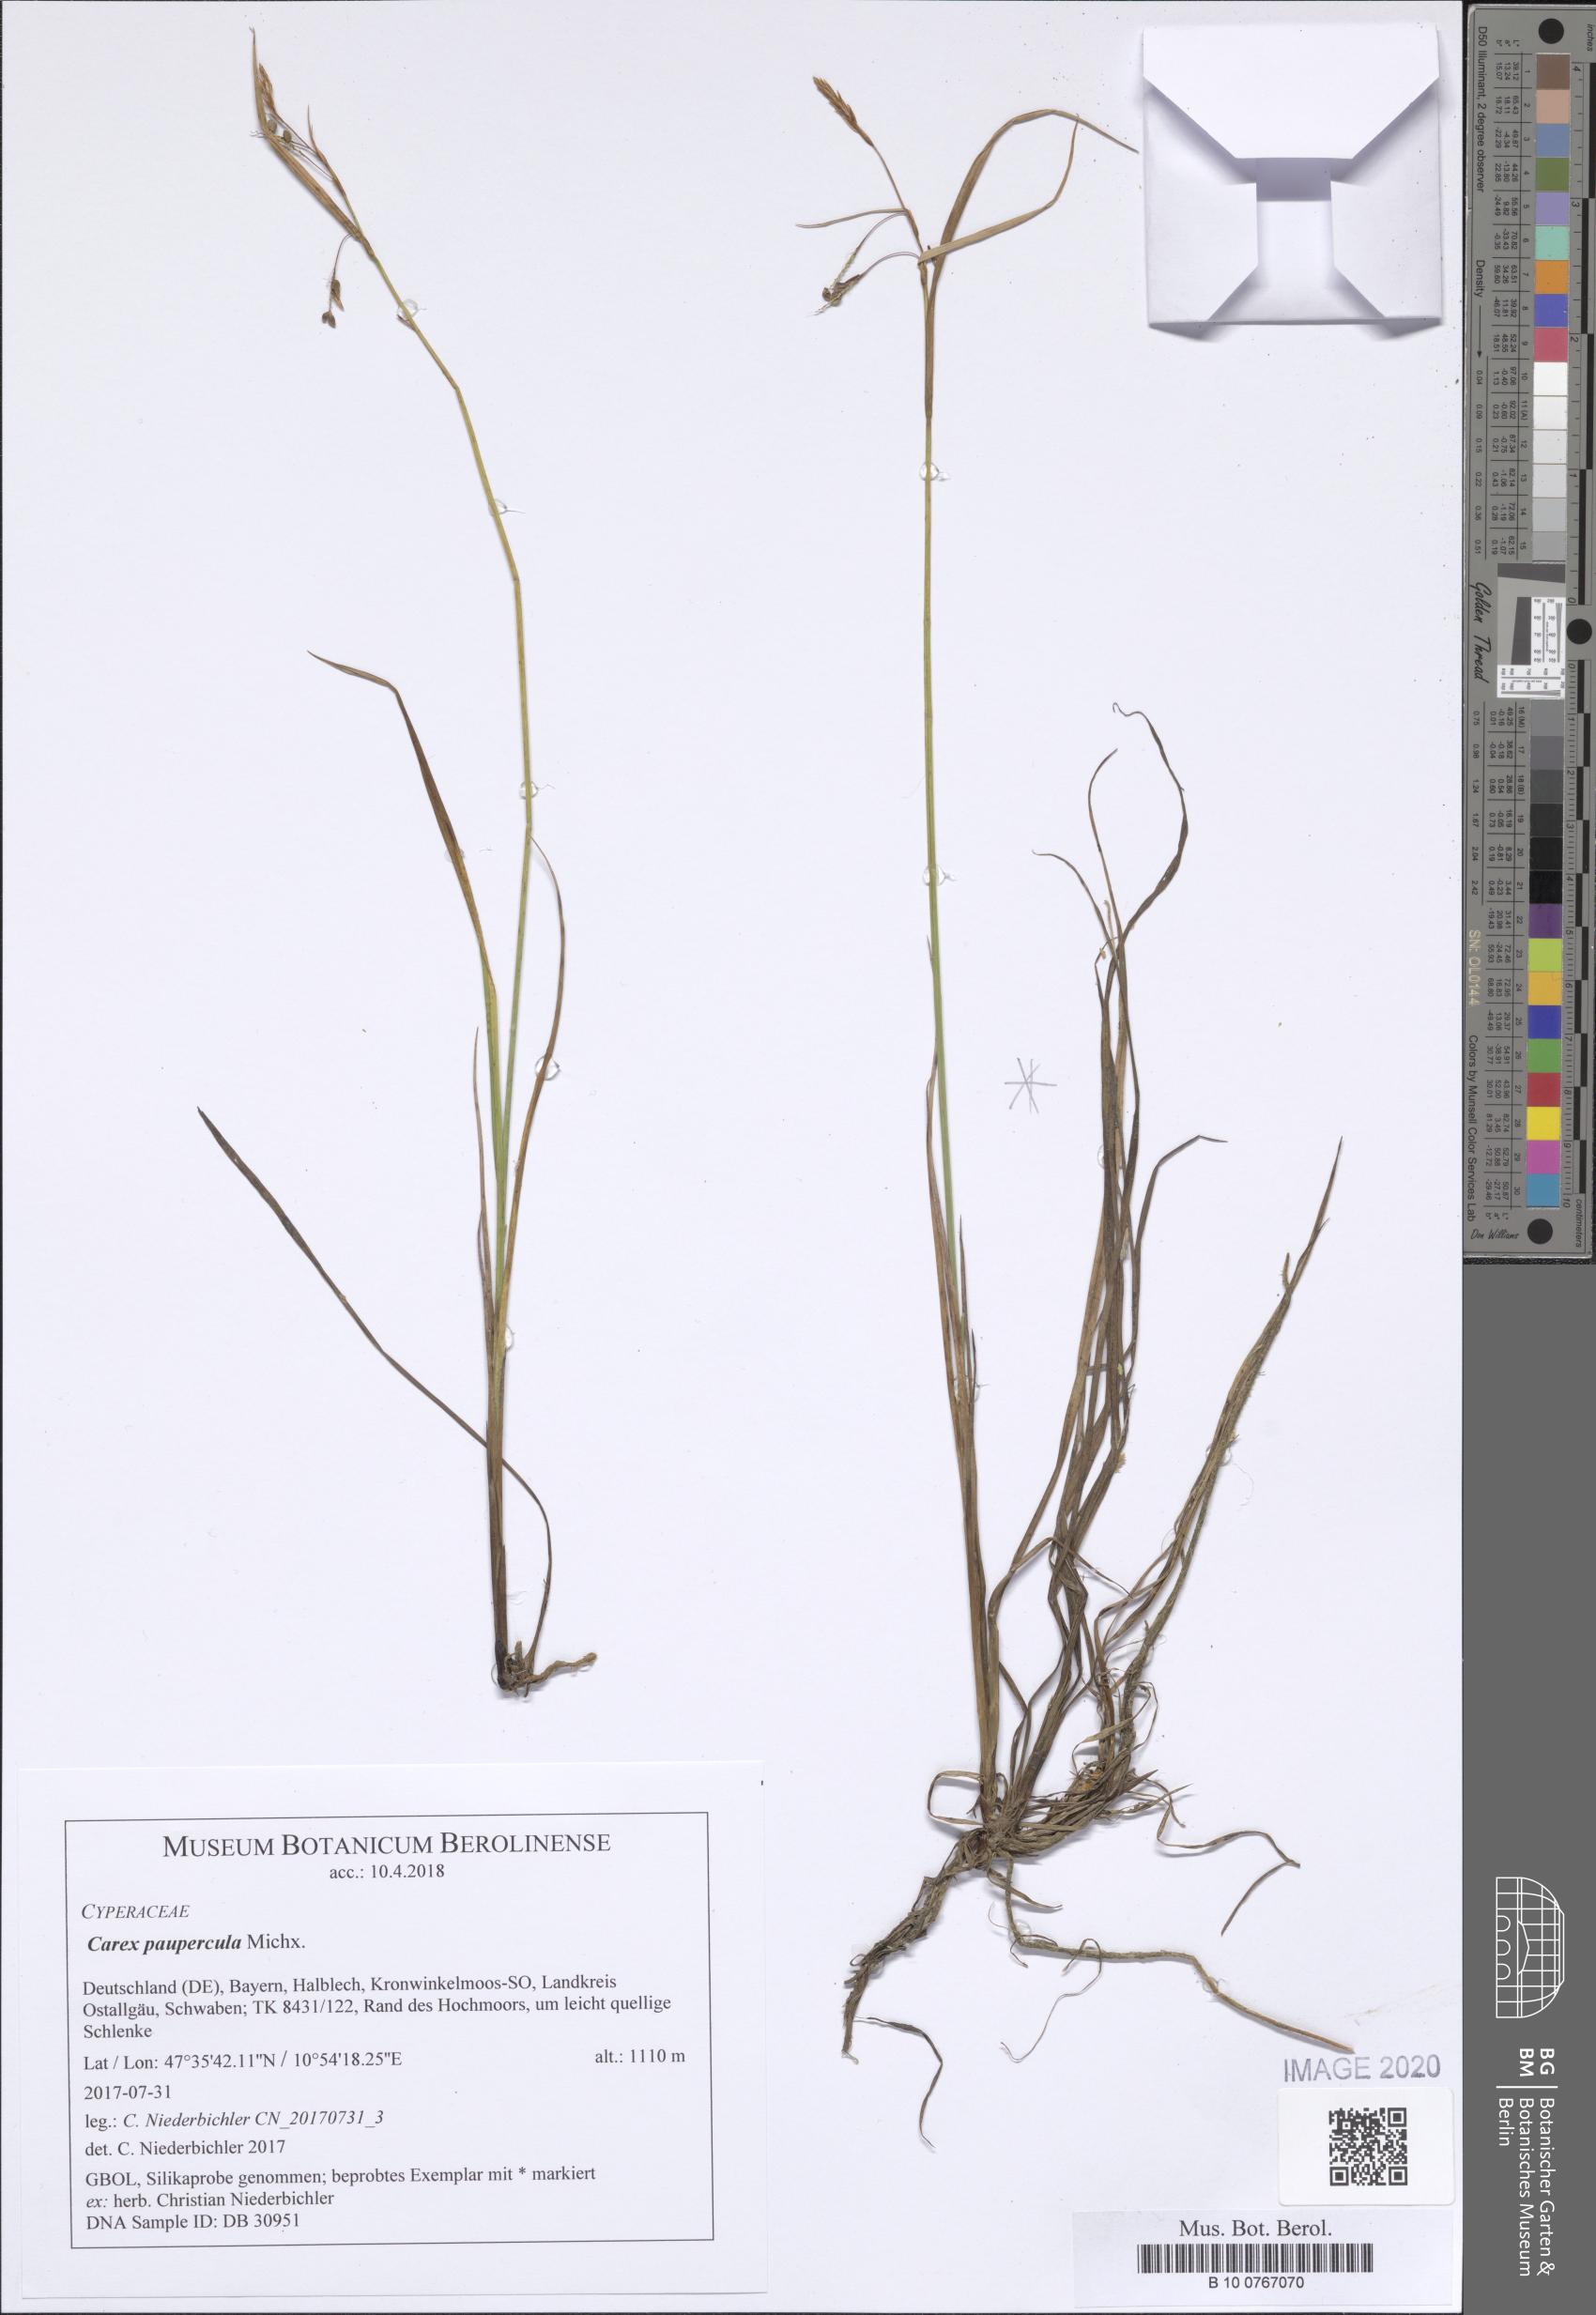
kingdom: Plantae
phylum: Tracheophyta
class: Liliopsida
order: Poales
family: Cyperaceae
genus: Carex
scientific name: Carex magellanica
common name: Bog sedge
